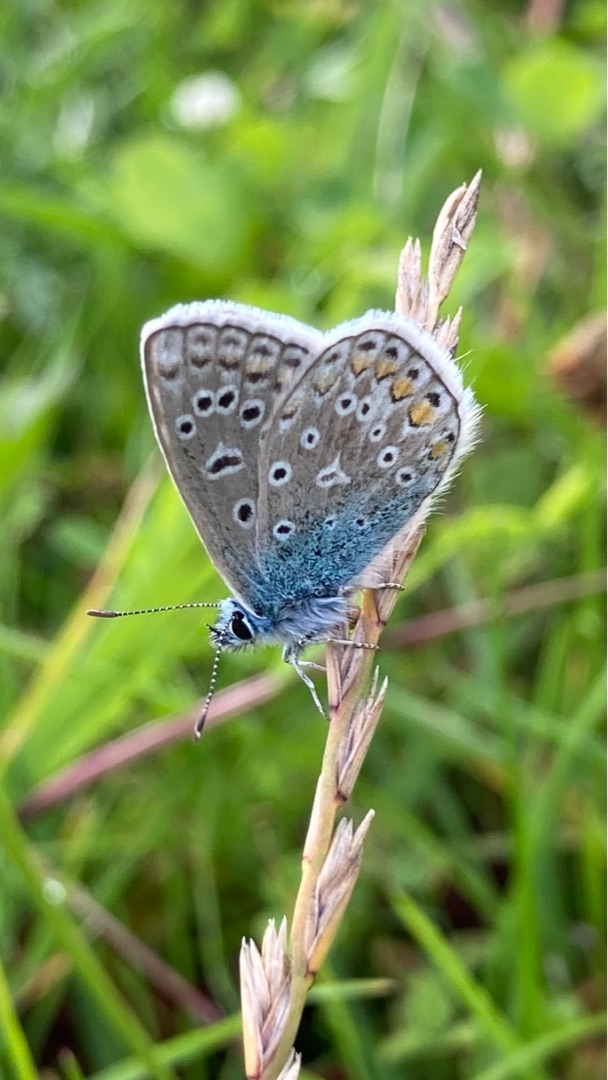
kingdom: Animalia
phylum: Arthropoda
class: Insecta
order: Lepidoptera
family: Lycaenidae
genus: Polyommatus
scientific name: Polyommatus icarus
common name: Almindelig blåfugl
